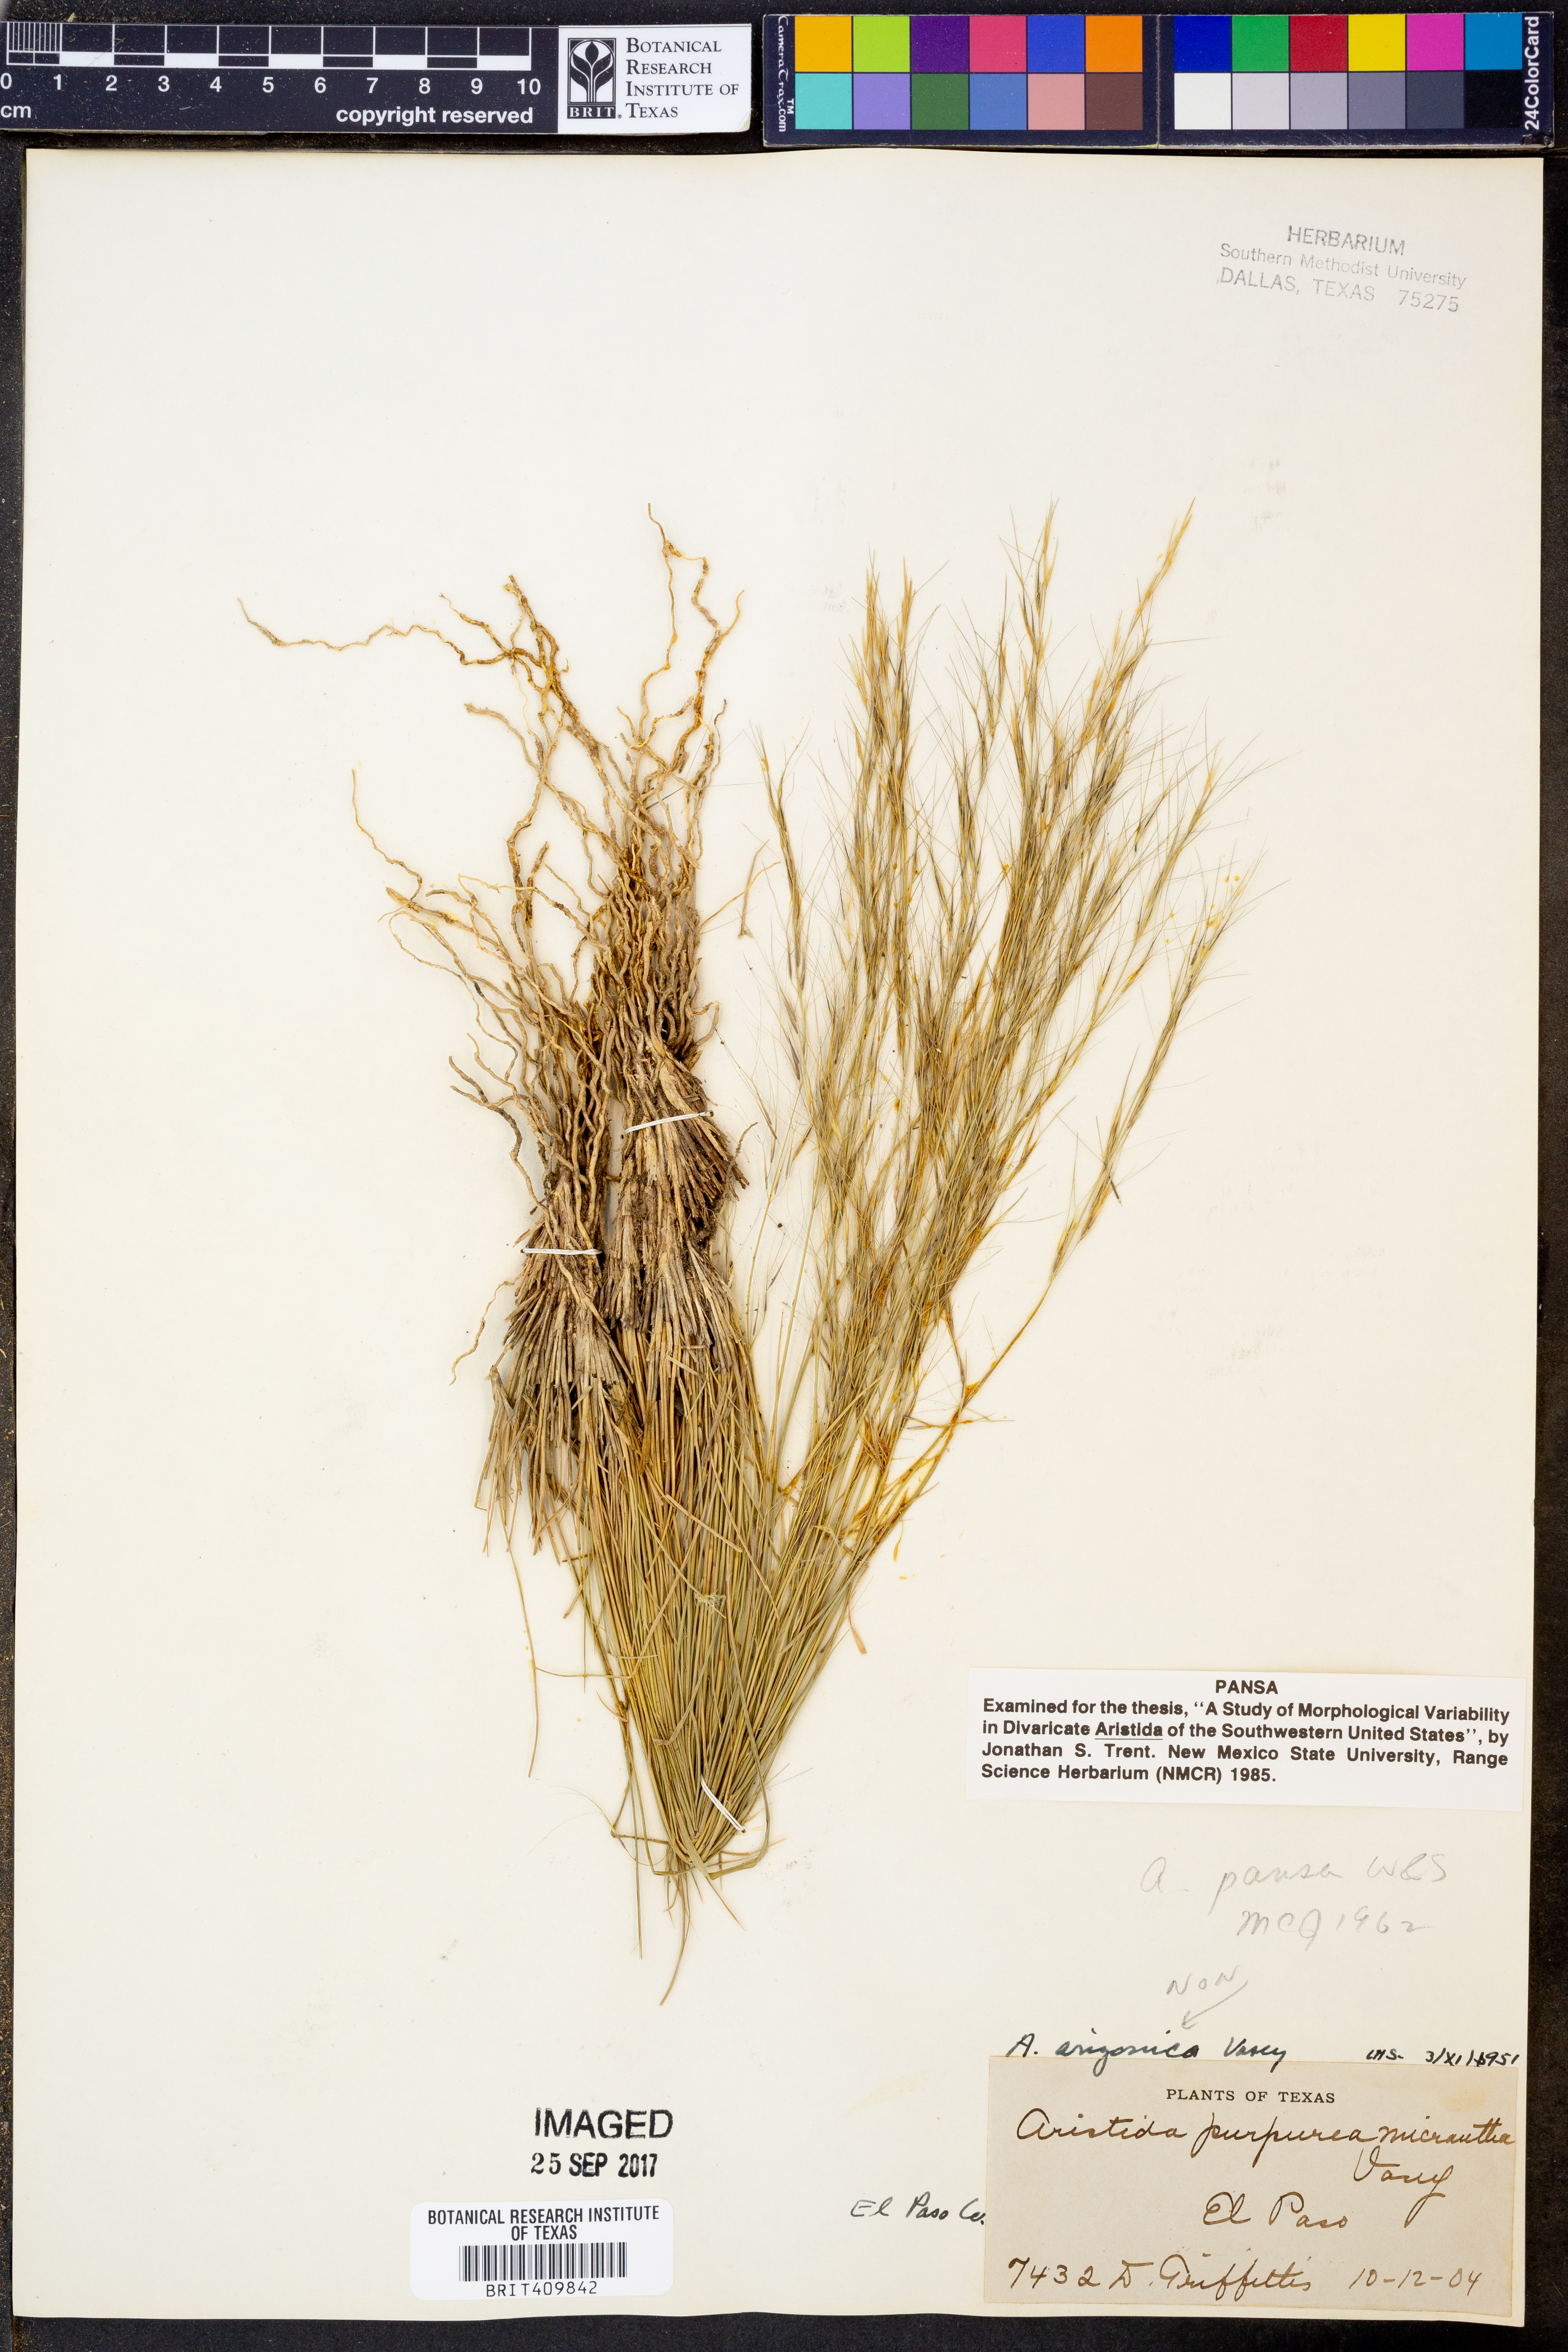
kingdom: Plantae
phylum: Tracheophyta
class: Liliopsida
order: Poales
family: Poaceae
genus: Aristida
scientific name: Aristida pansa
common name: Wooton's three-awn
